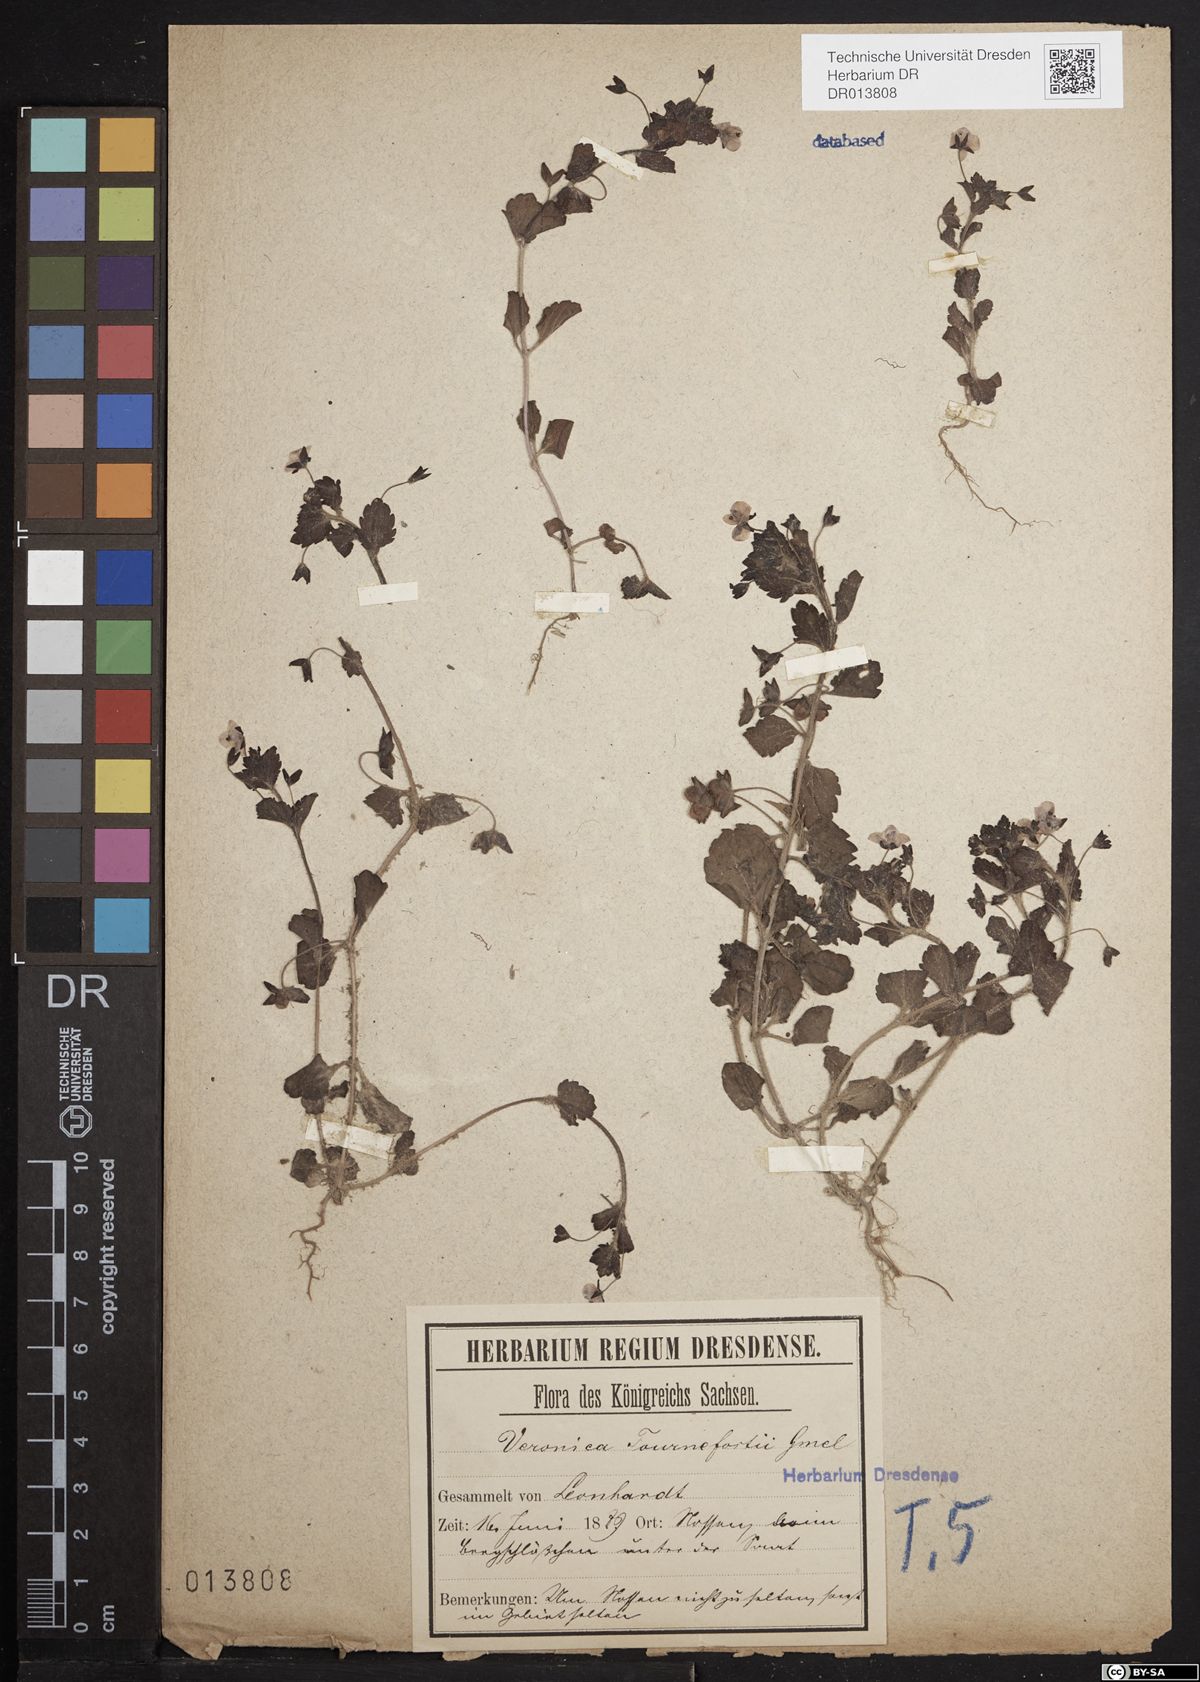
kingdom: Plantae
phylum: Tracheophyta
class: Magnoliopsida
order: Lamiales
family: Plantaginaceae
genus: Veronica
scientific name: Veronica persica
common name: Common field-speedwell
